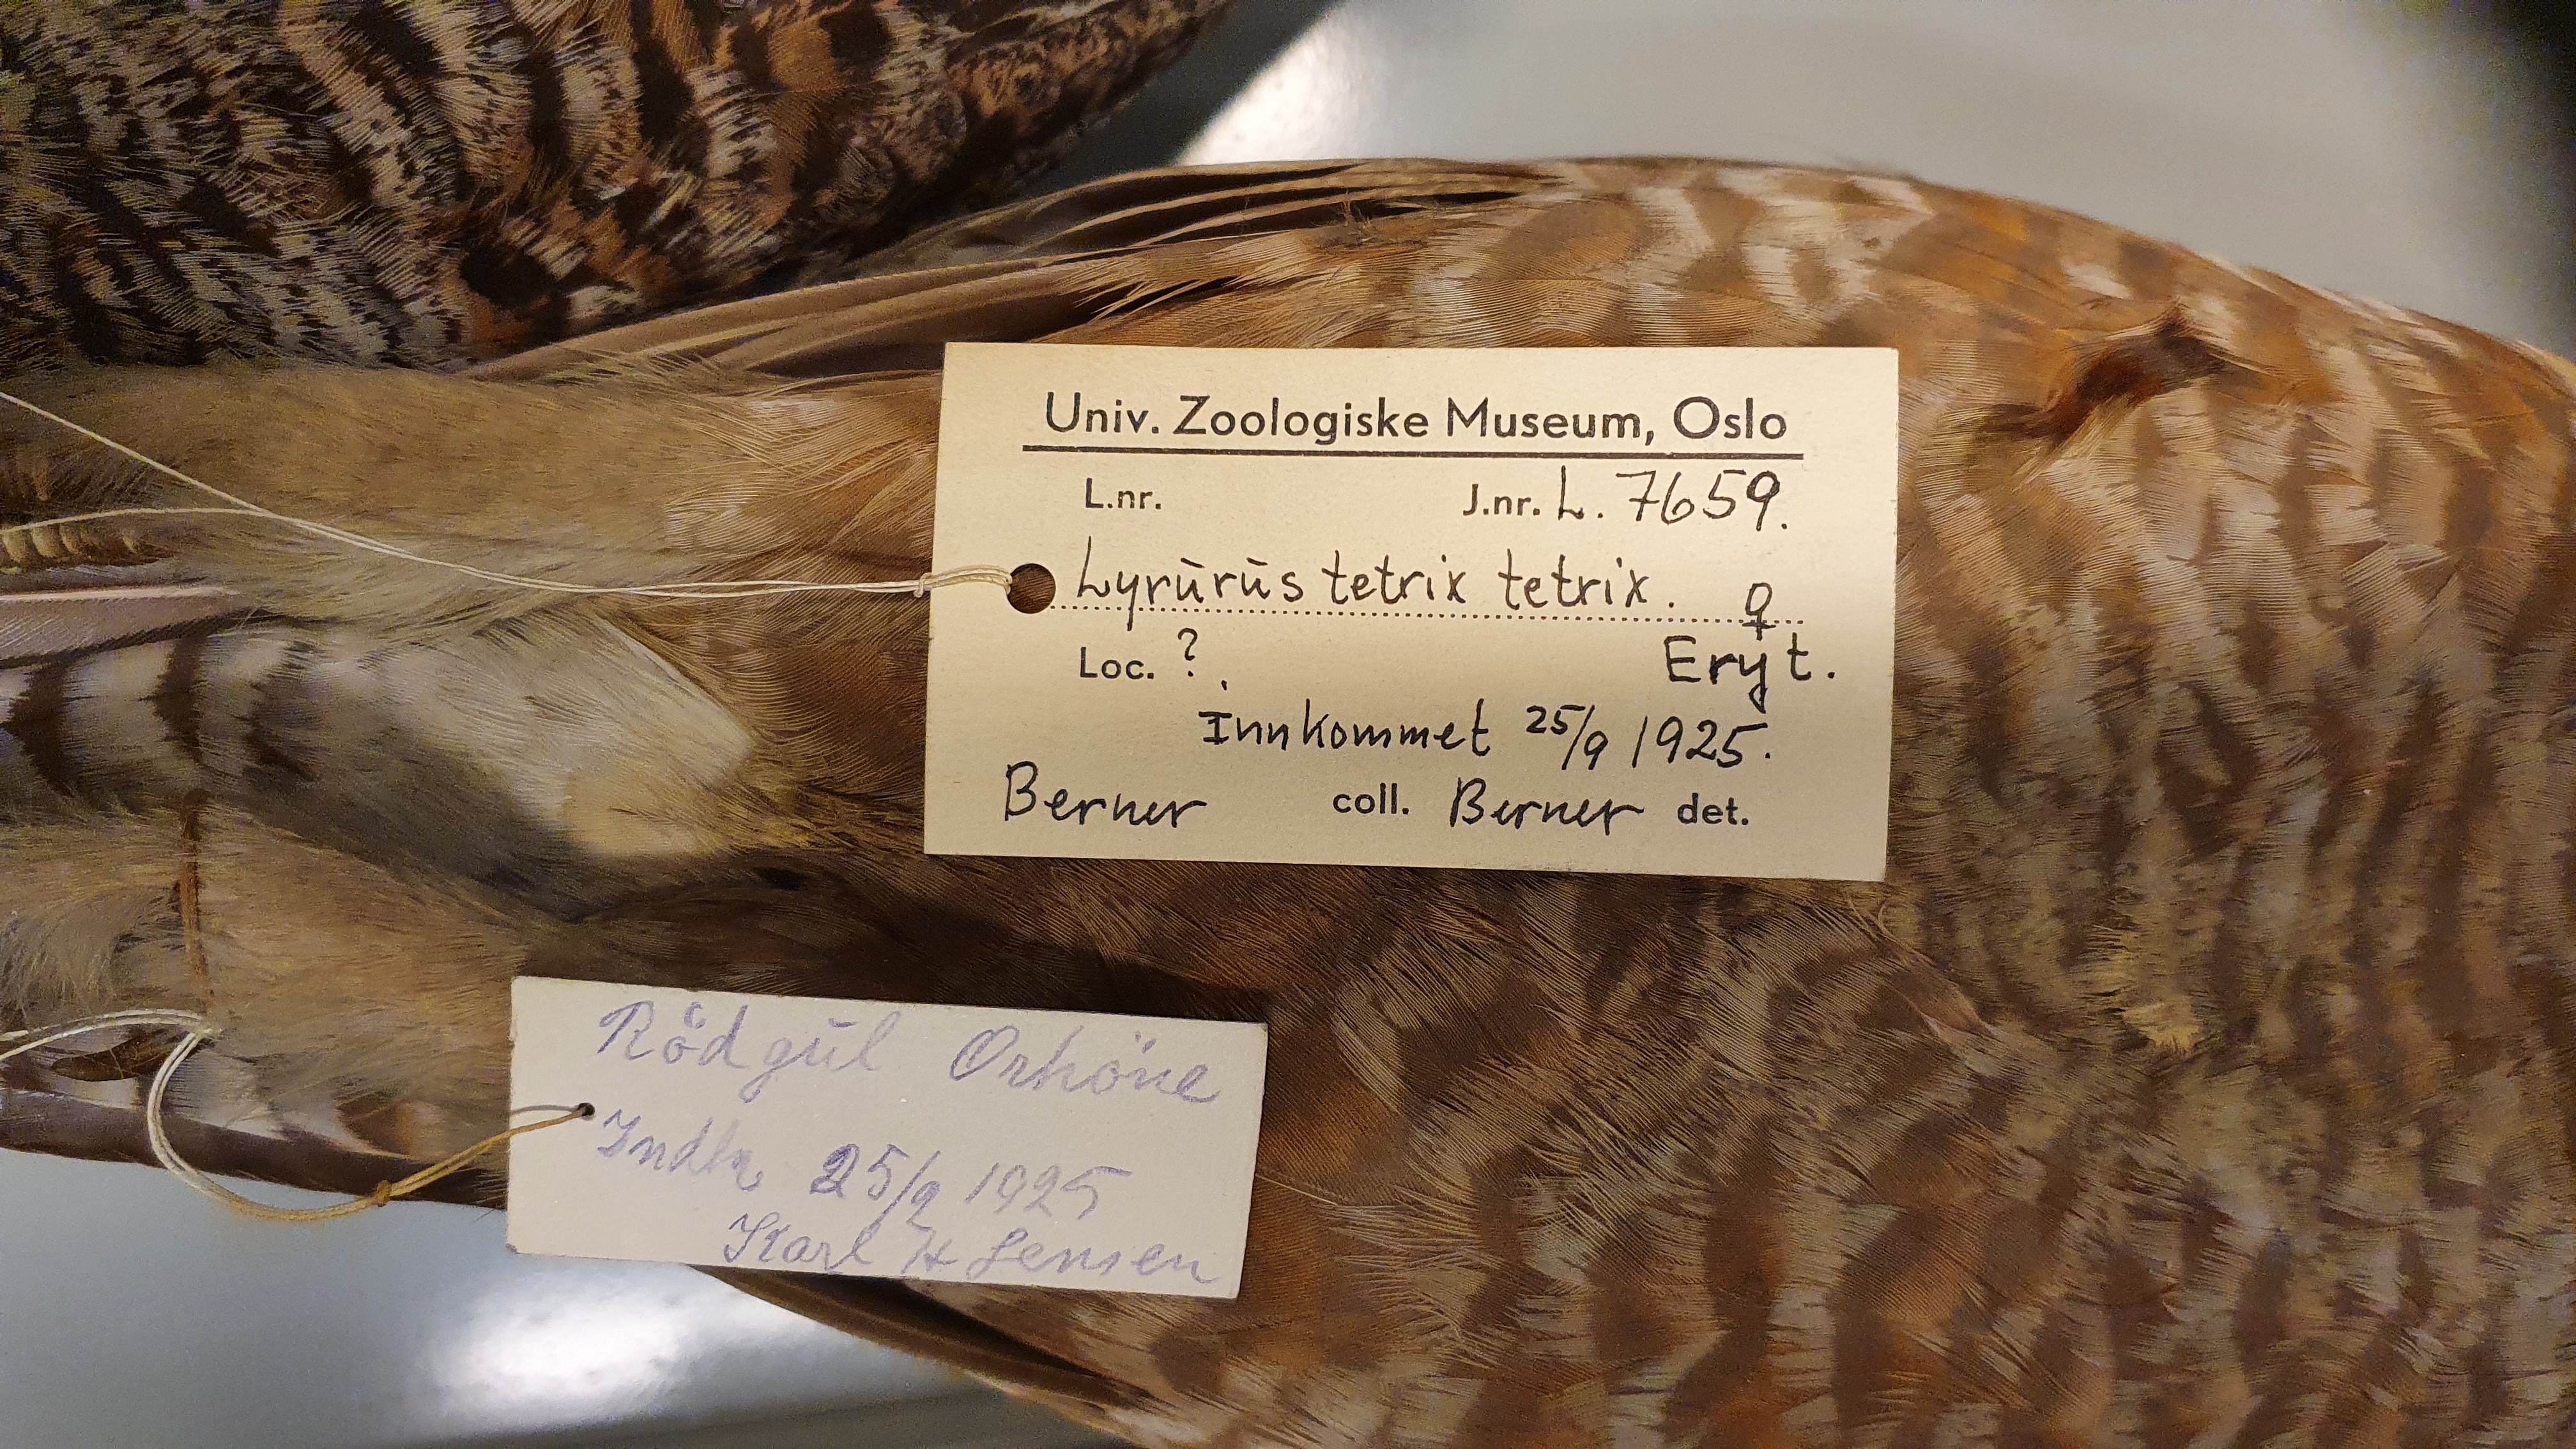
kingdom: Animalia
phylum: Chordata
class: Aves
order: Galliformes
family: Phasianidae
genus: Lyrurus
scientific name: Lyrurus tetrix
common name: Black grouse
